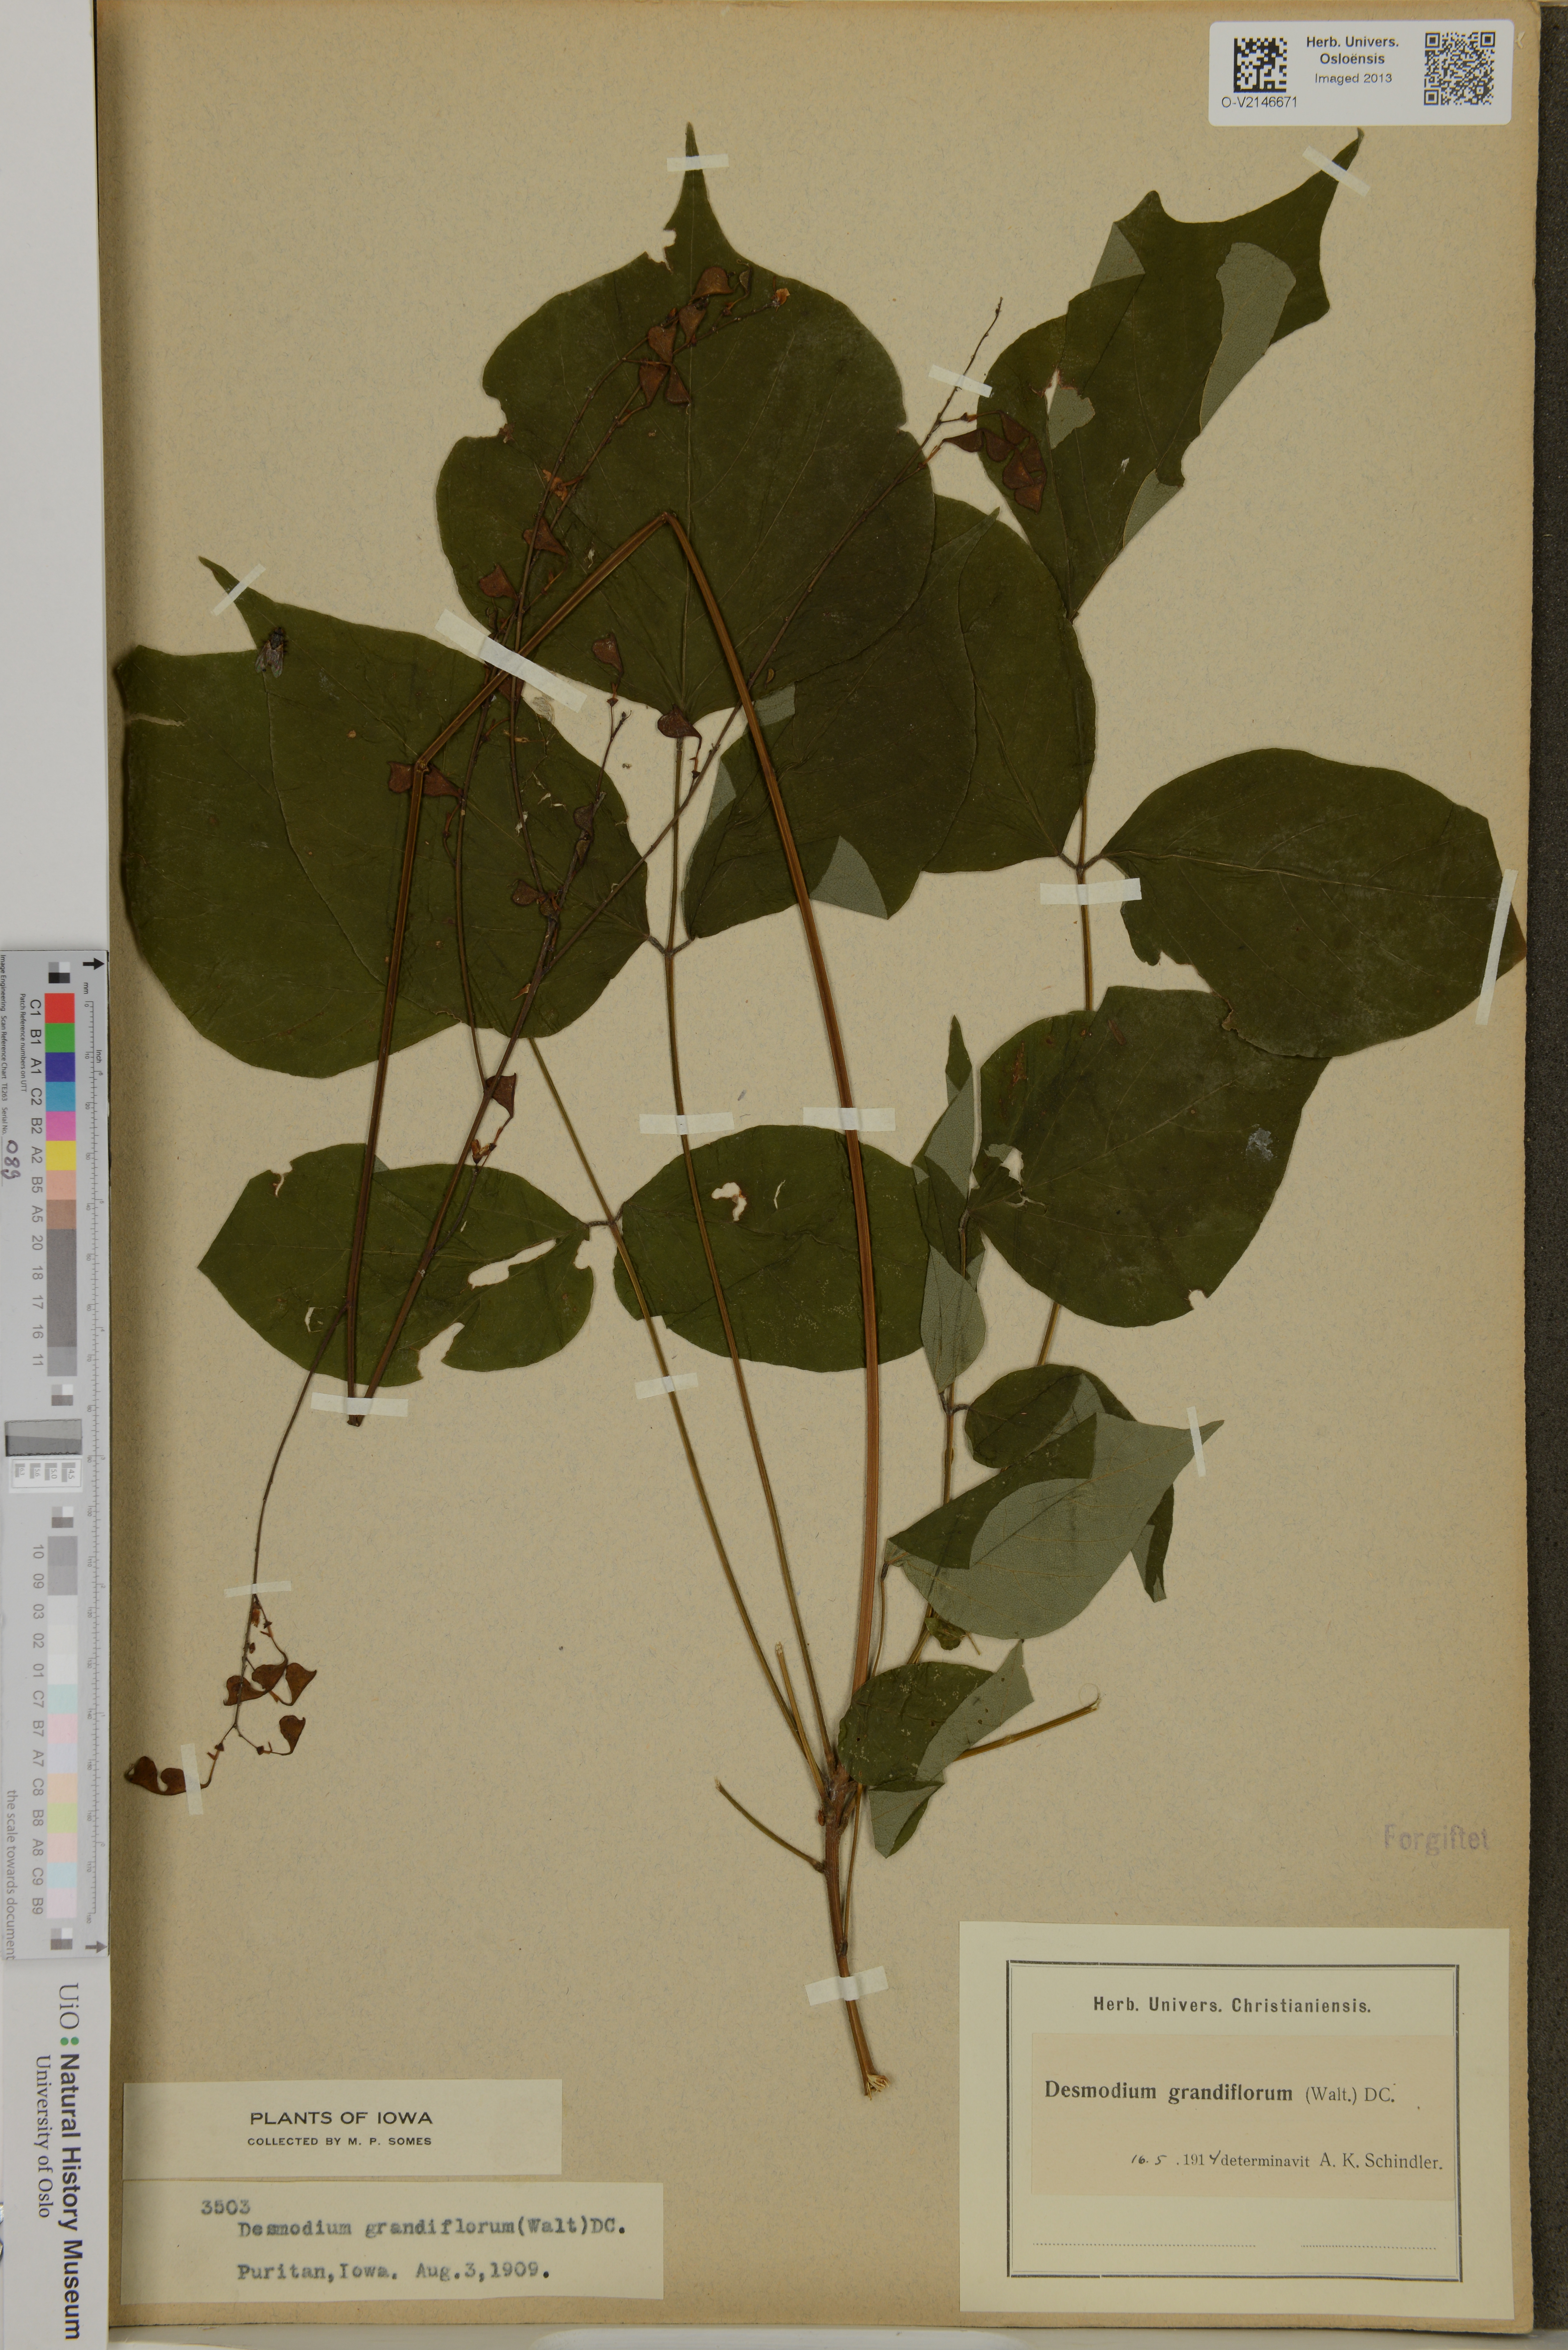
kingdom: Plantae
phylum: Tracheophyta
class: Magnoliopsida
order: Fabales
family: Fabaceae
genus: Hylodesmum
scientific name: Hylodesmum glutinosum
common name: Clustered-leaved tick-trefoil
